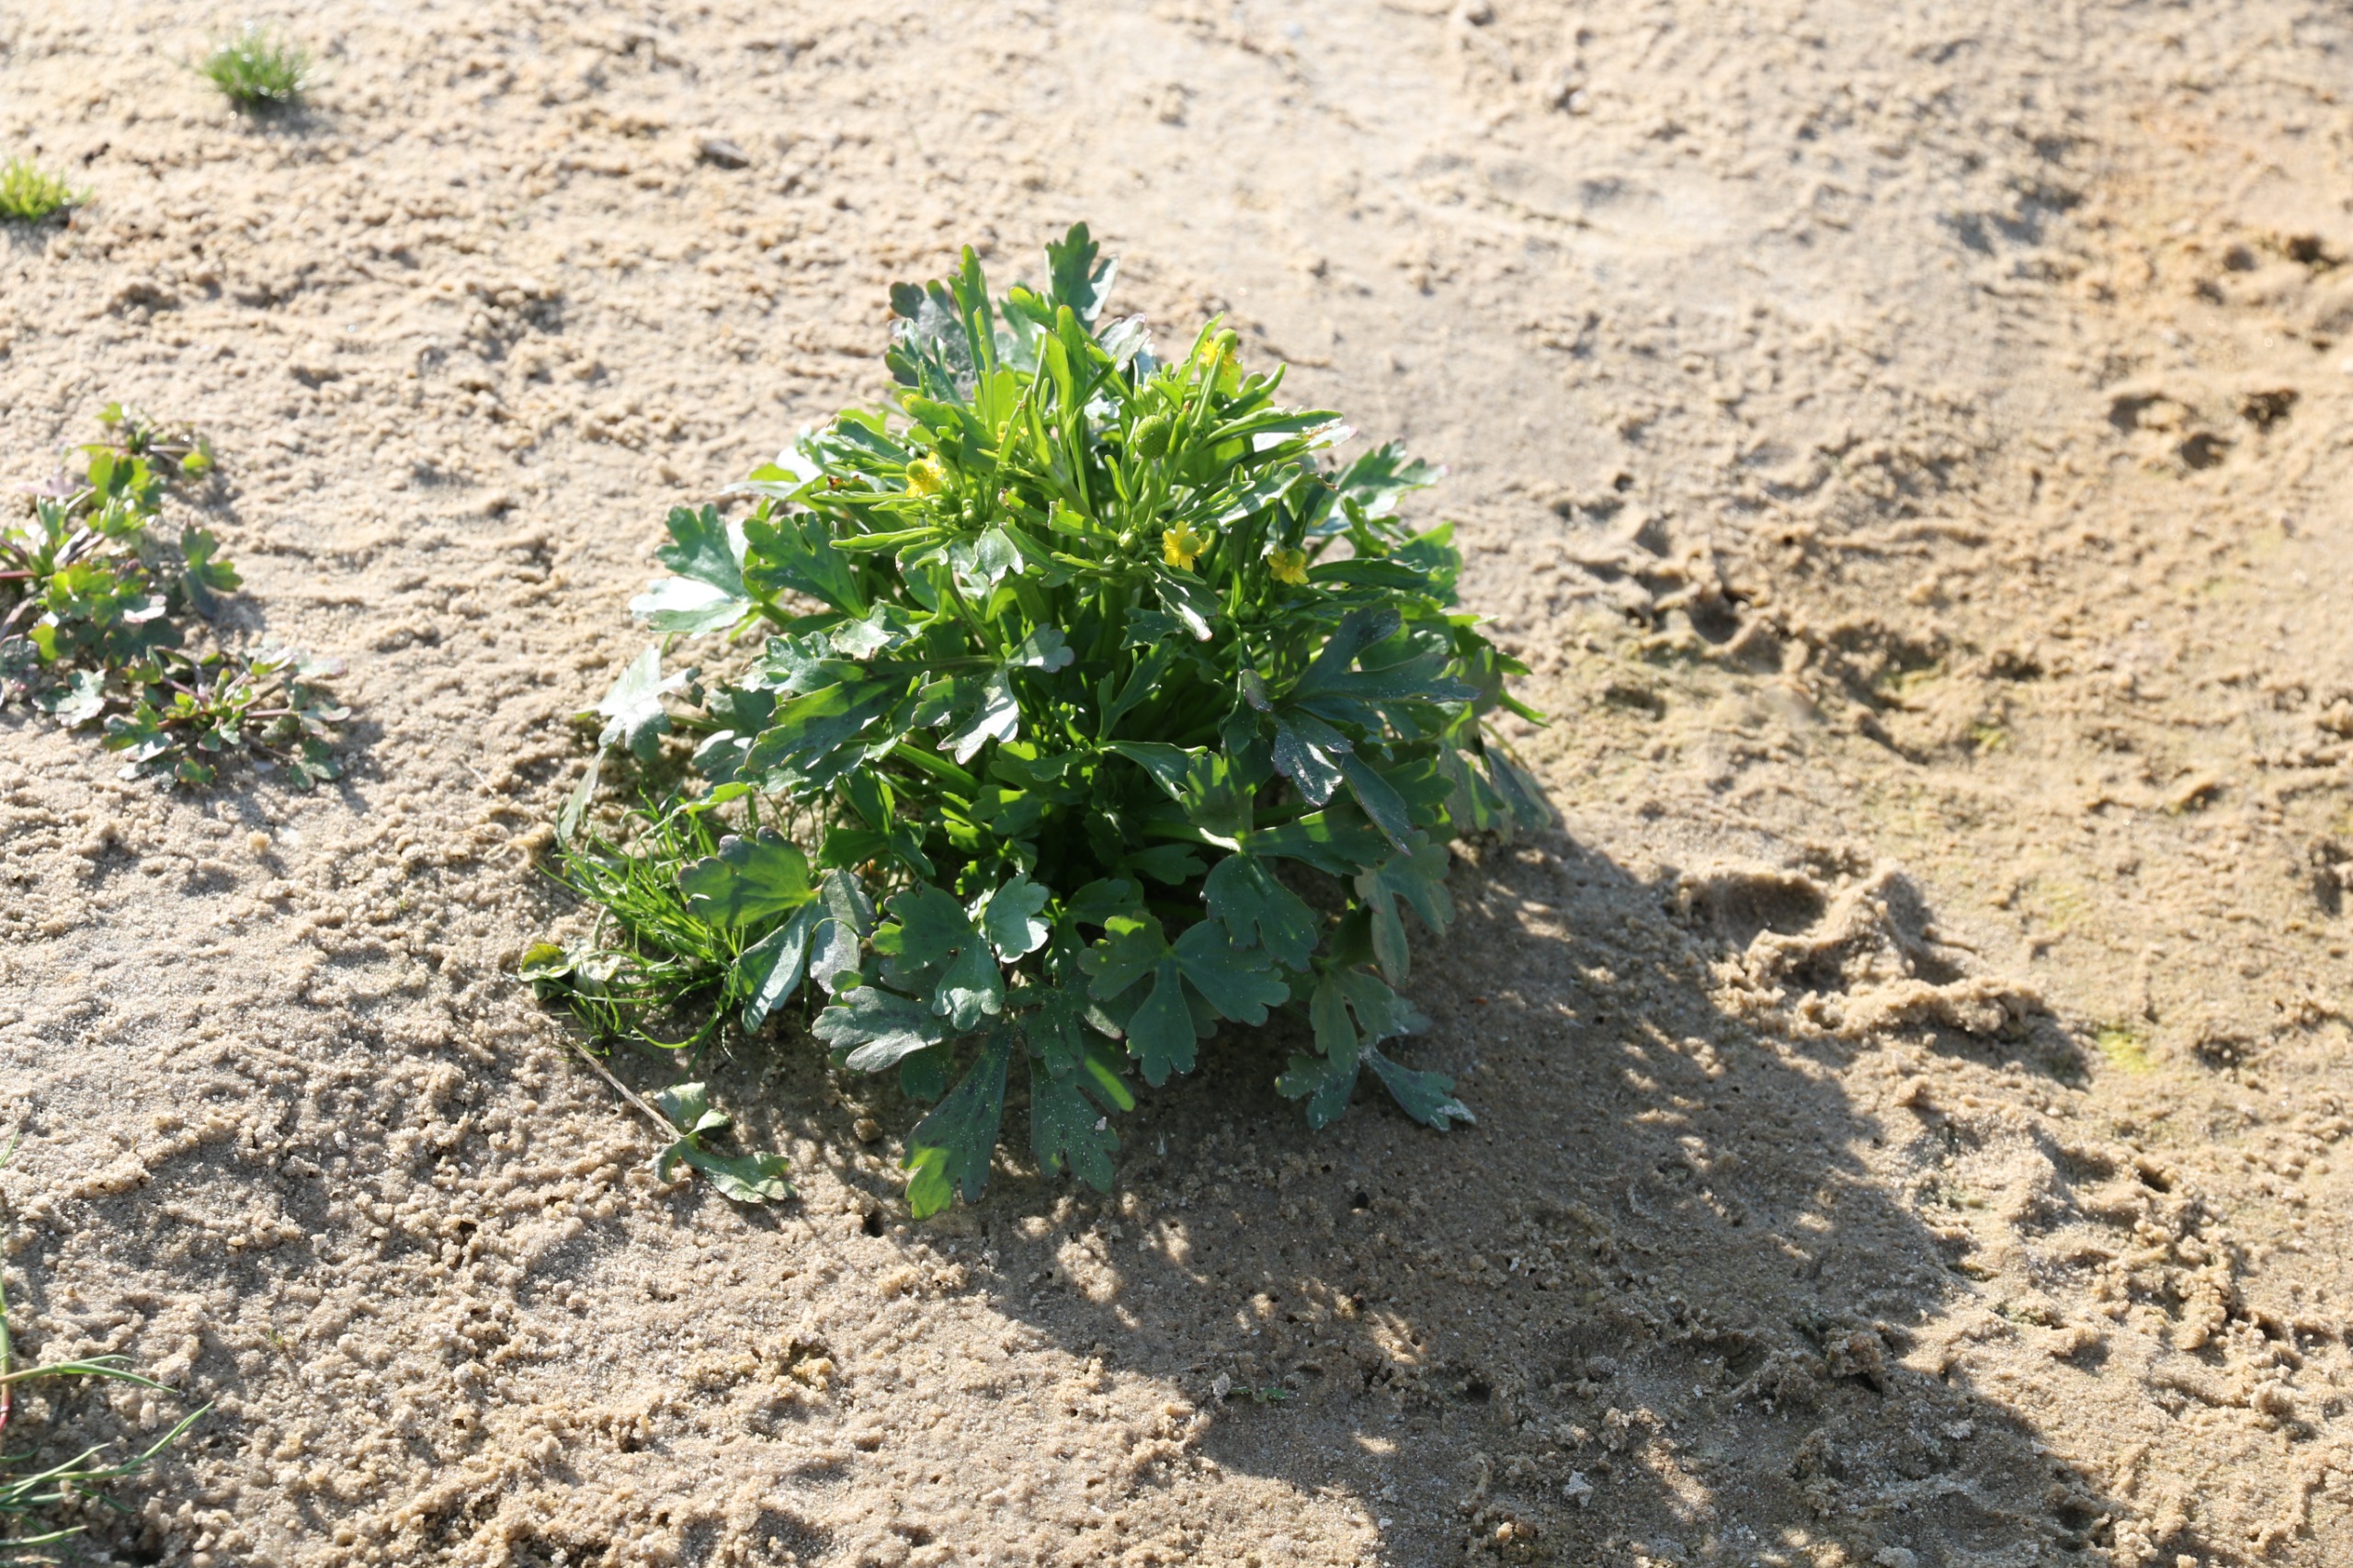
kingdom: Plantae
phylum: Tracheophyta
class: Magnoliopsida
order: Ranunculales
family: Ranunculaceae
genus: Ranunculus
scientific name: Ranunculus sceleratus
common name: Tigger-ranunkel
